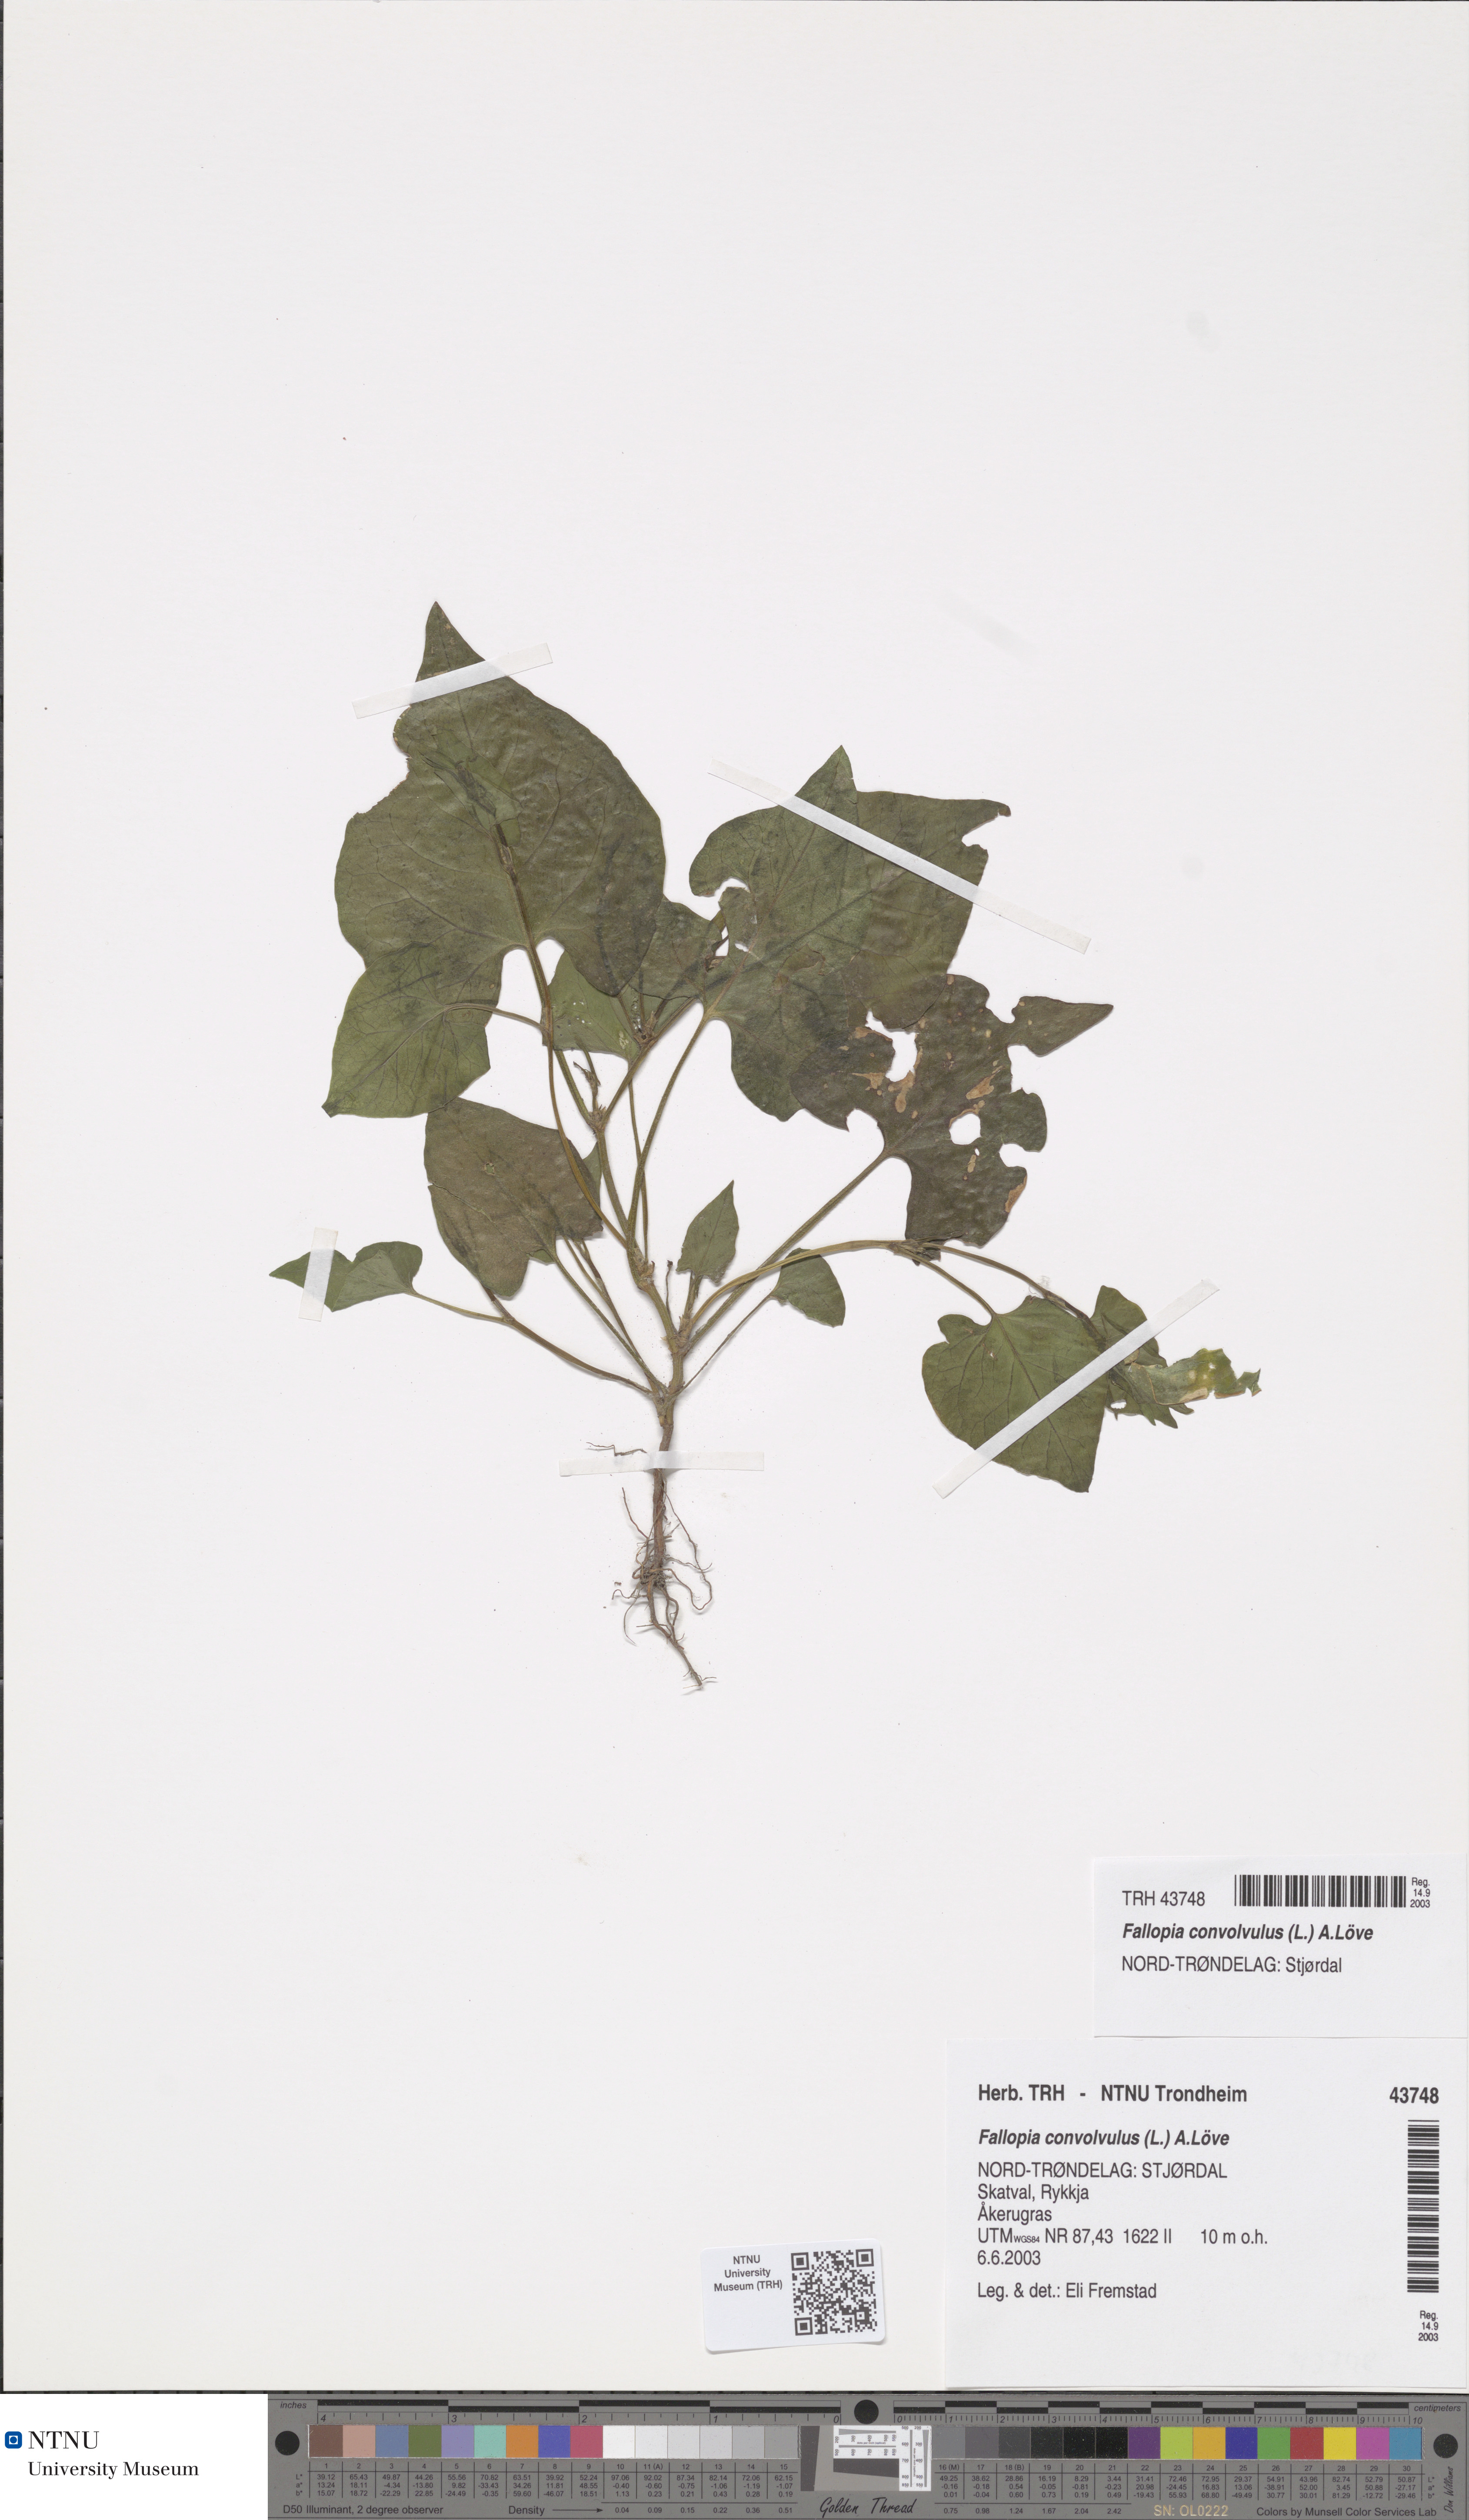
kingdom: Plantae
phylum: Tracheophyta
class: Magnoliopsida
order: Caryophyllales
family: Polygonaceae
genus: Fallopia
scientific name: Fallopia convolvulus
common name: Black bindweed
